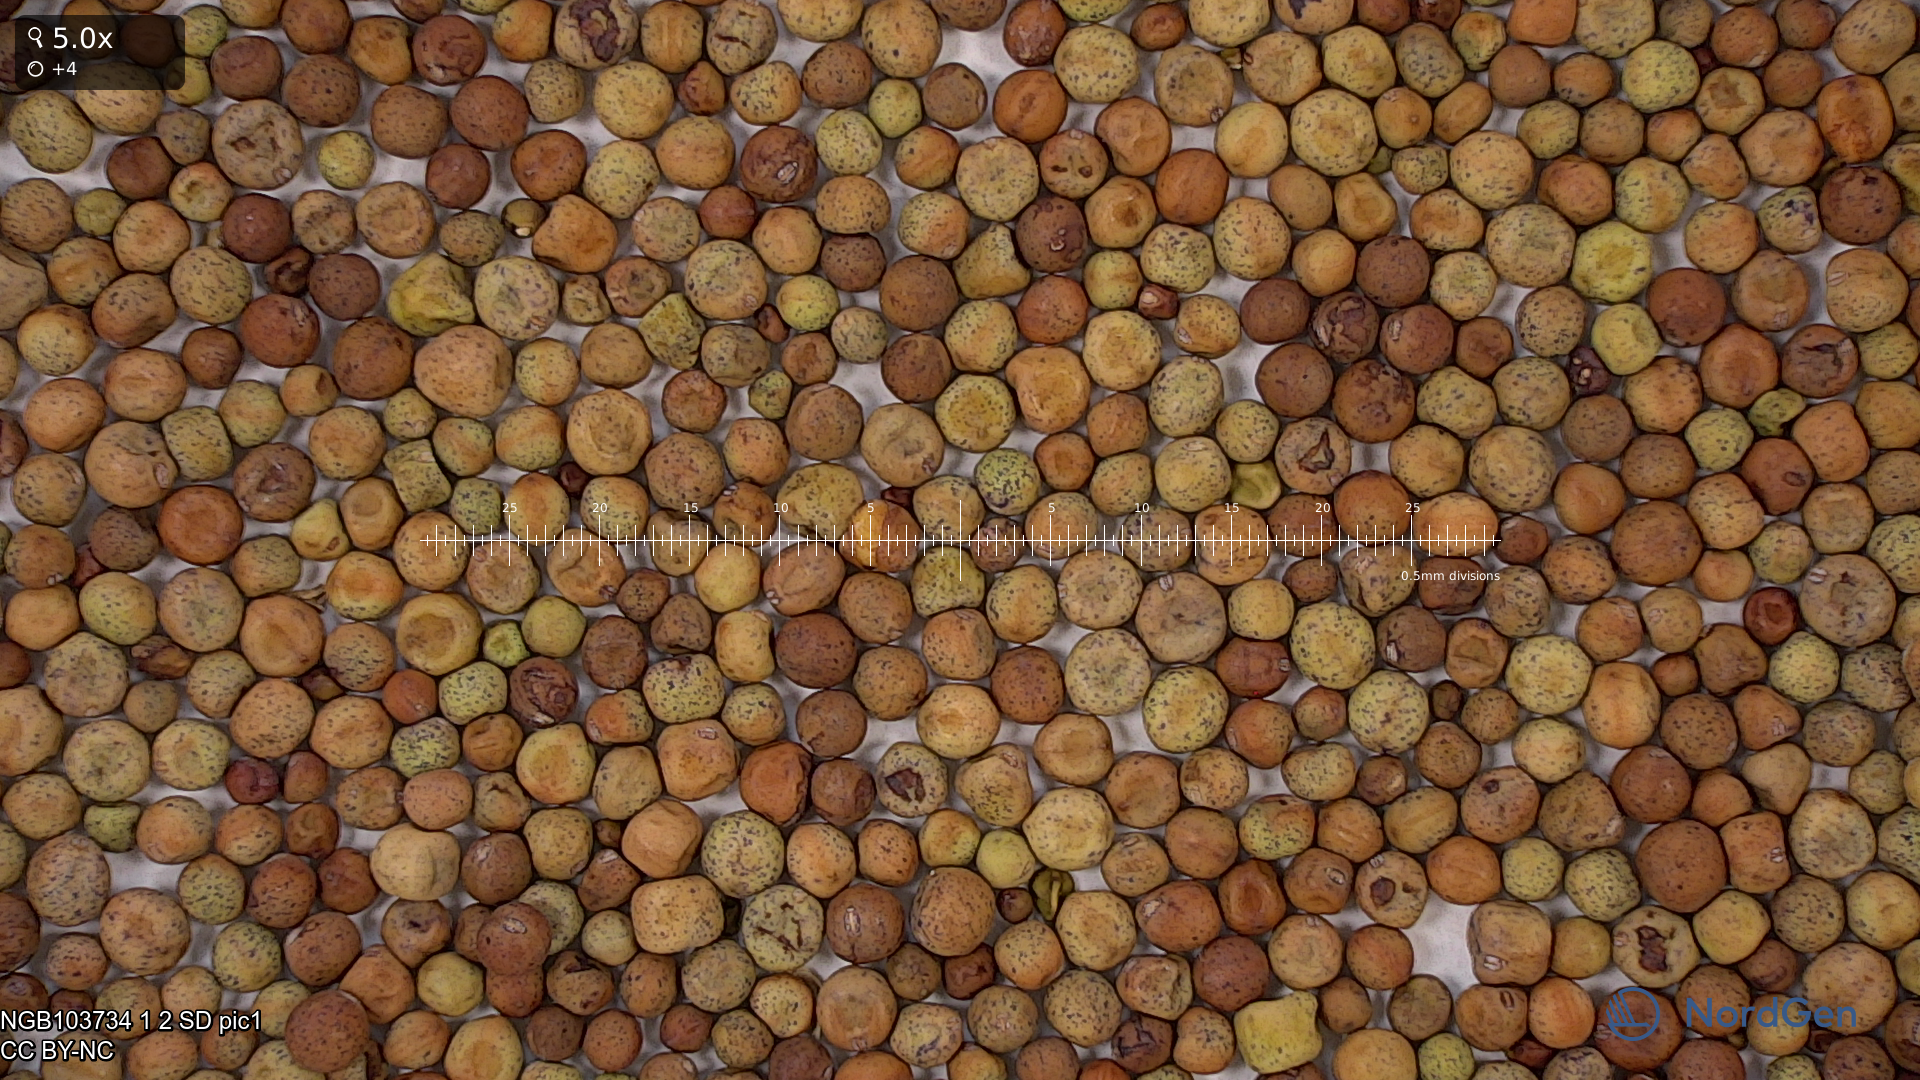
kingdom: Plantae
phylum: Tracheophyta
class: Magnoliopsida
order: Fabales
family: Fabaceae
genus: Lathyrus
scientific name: Lathyrus oleraceus
